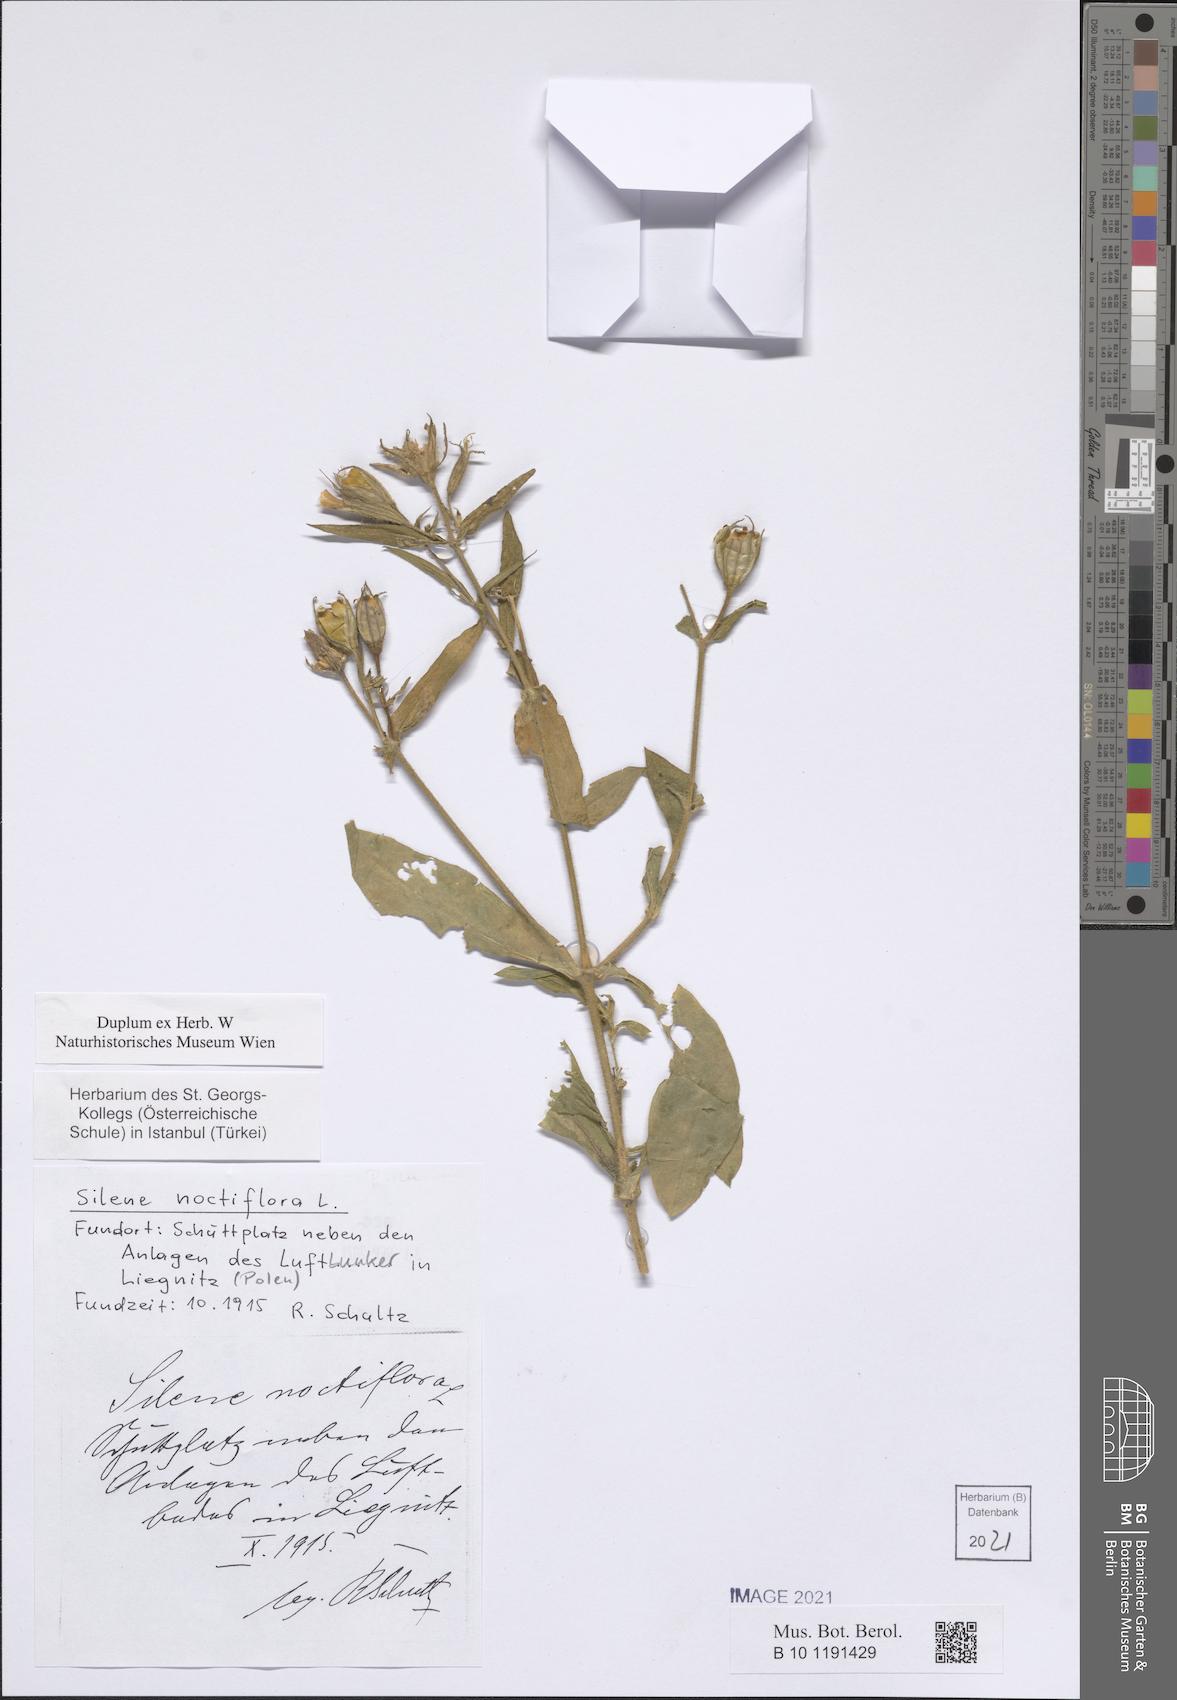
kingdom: Plantae
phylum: Tracheophyta
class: Magnoliopsida
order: Caryophyllales
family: Caryophyllaceae
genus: Silene
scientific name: Silene noctiflora
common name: Night-flowering catchfly
